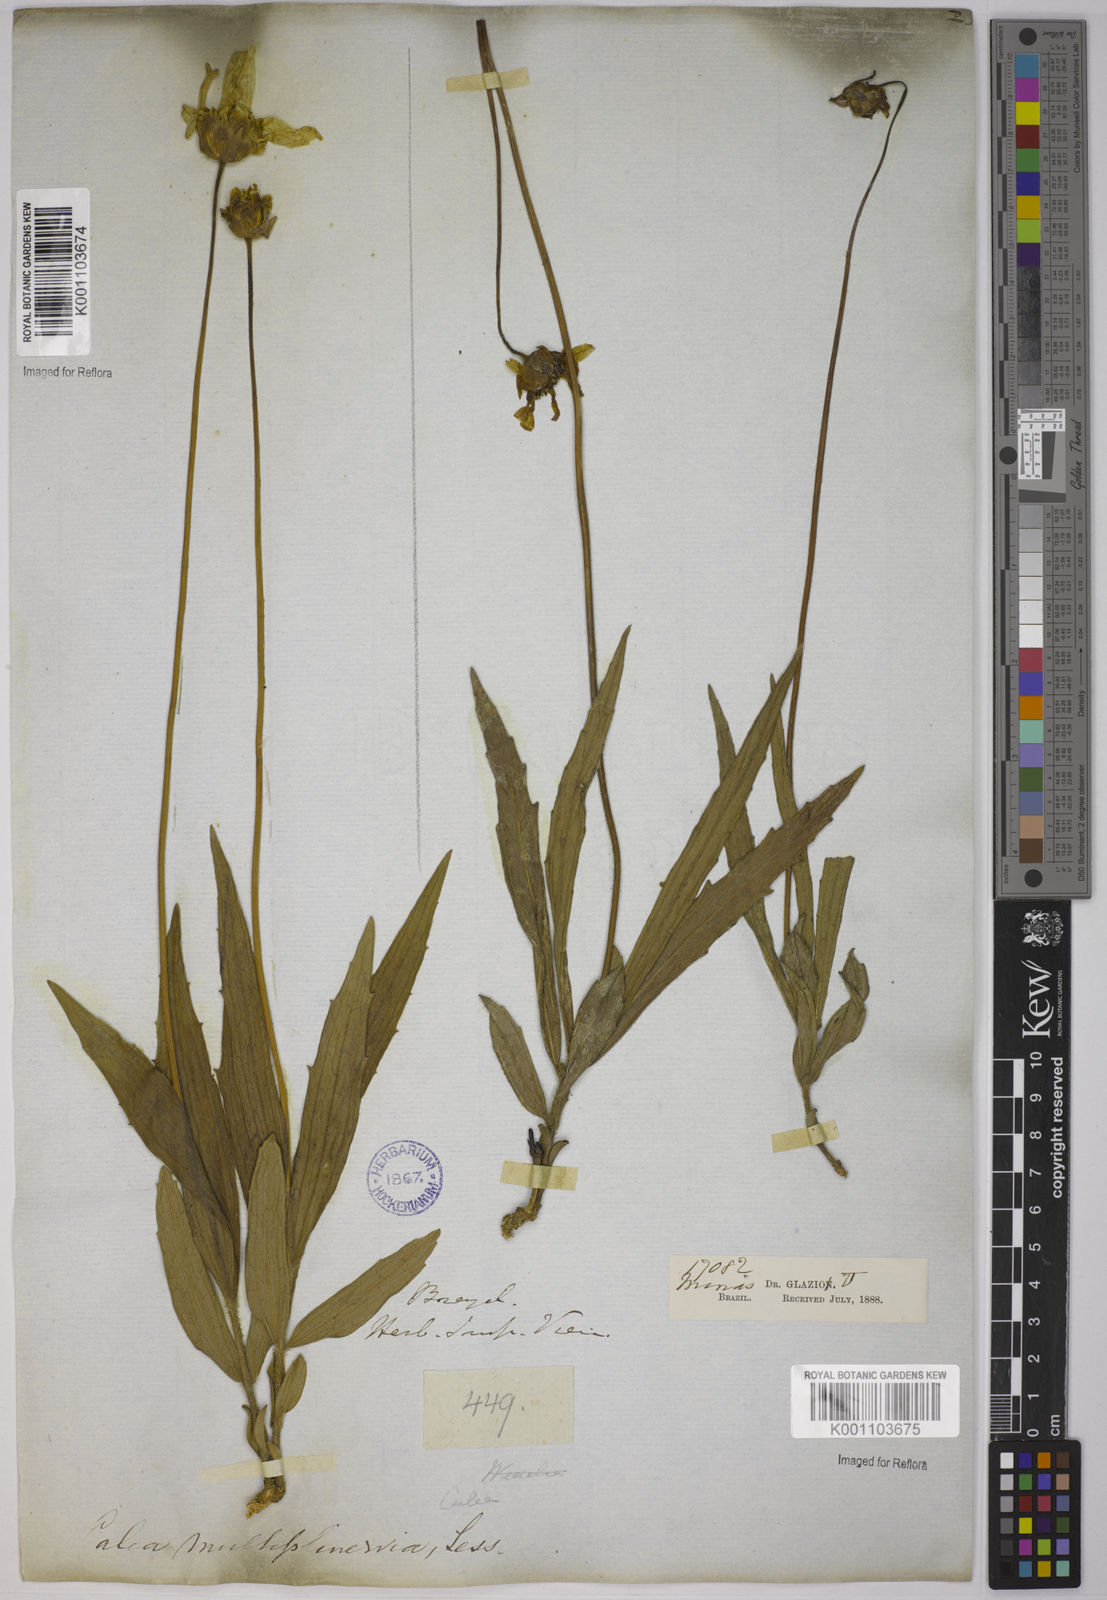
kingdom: Plantae
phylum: Tracheophyta
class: Magnoliopsida
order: Asterales
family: Asteraceae
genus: Calea
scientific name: Calea multiplinervia
